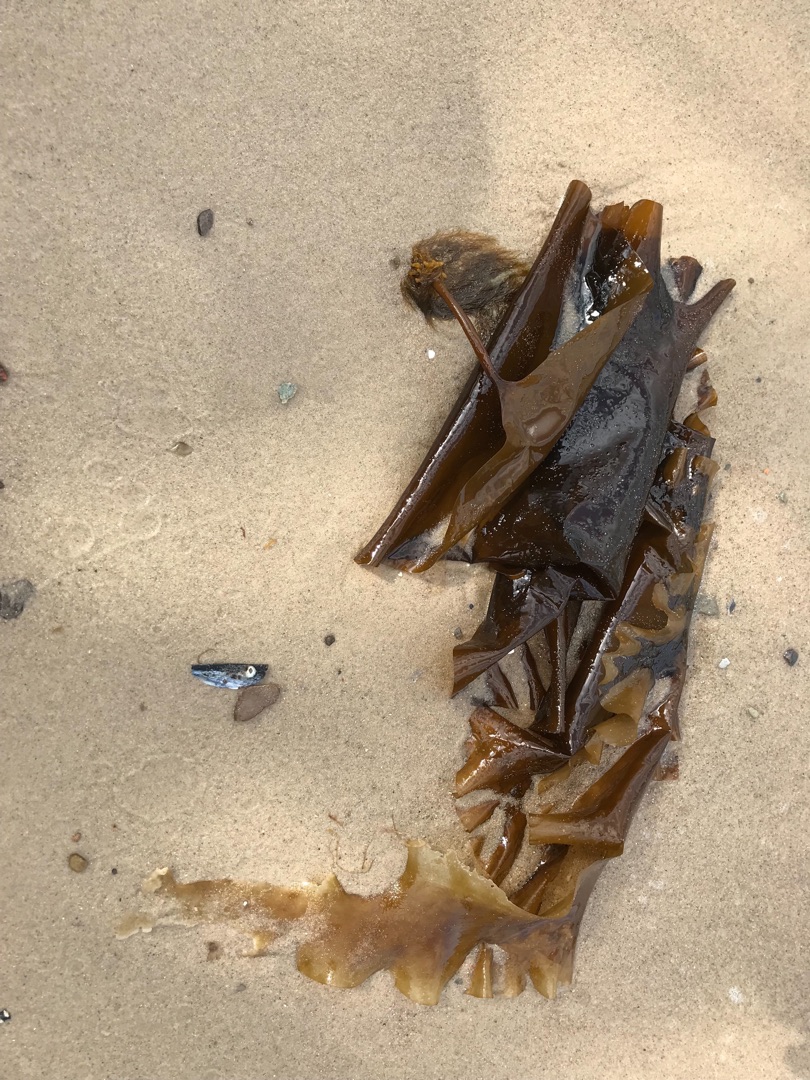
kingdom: Chromista
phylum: Ochrophyta
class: Phaeophyceae
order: Laminariales
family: Laminariaceae
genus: Saccharina
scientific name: Saccharina latissima
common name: Sukkertang
